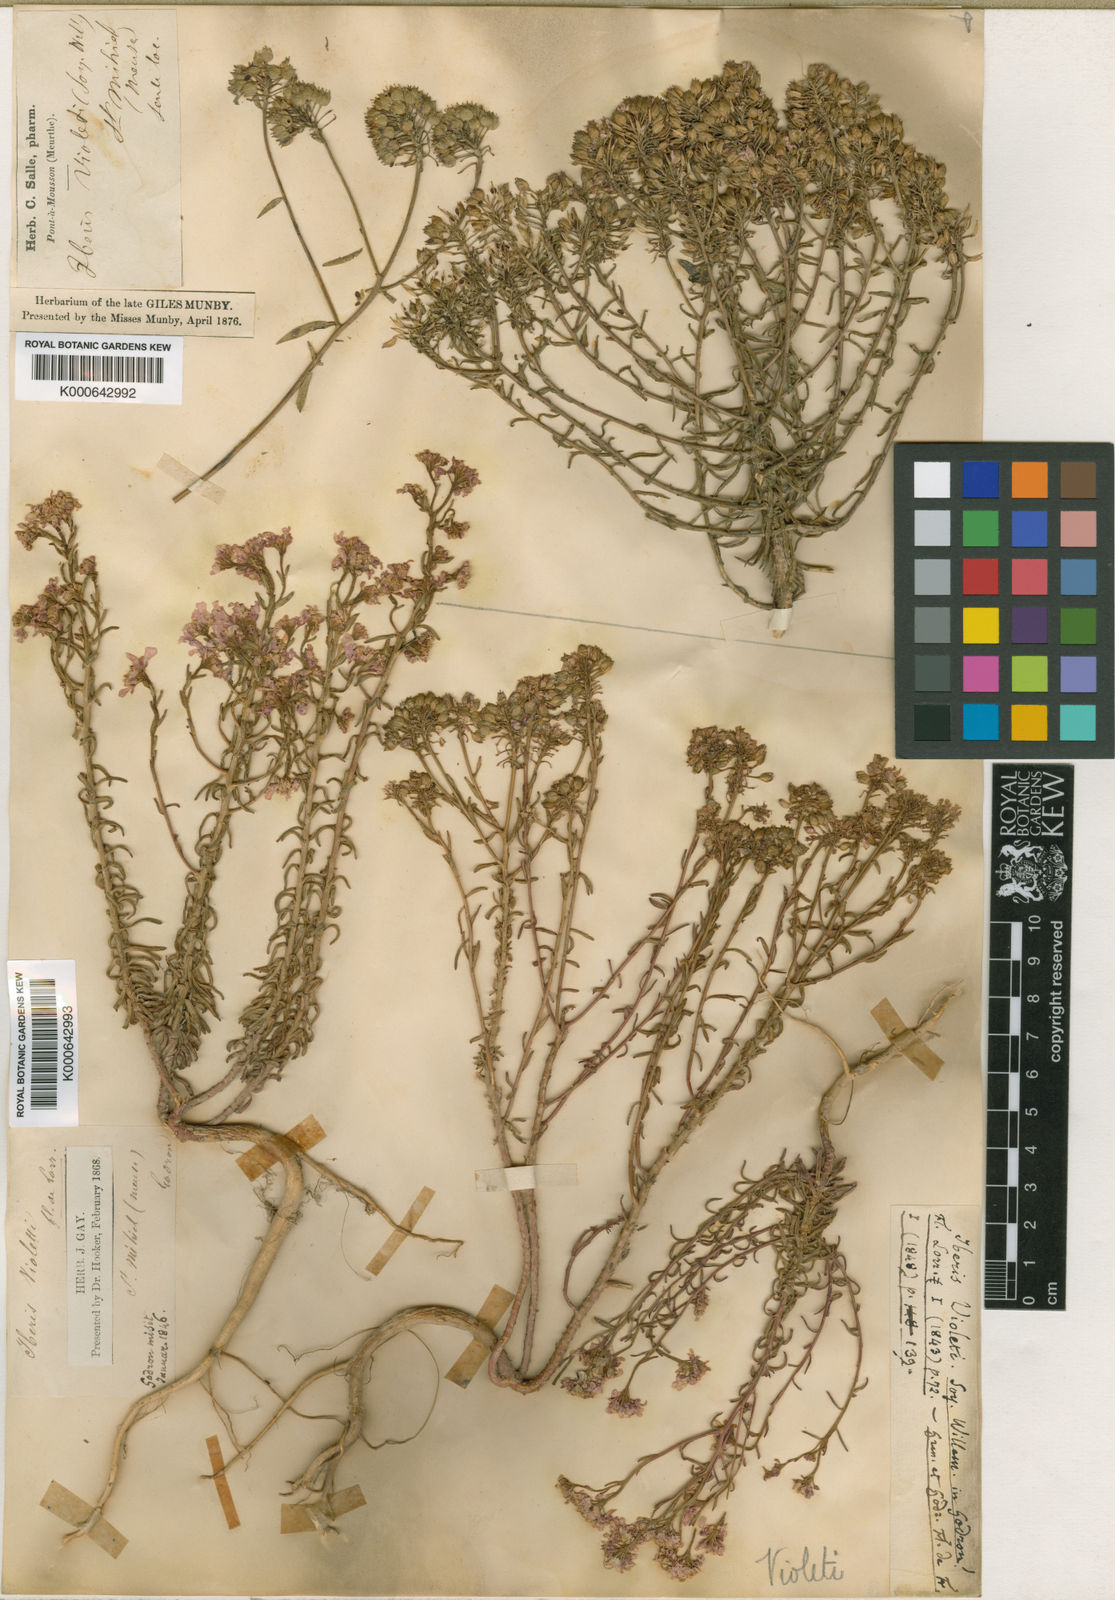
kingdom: Plantae
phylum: Tracheophyta
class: Magnoliopsida
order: Brassicales
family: Brassicaceae
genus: Iberis
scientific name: Iberis linifolia
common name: Candytuft
